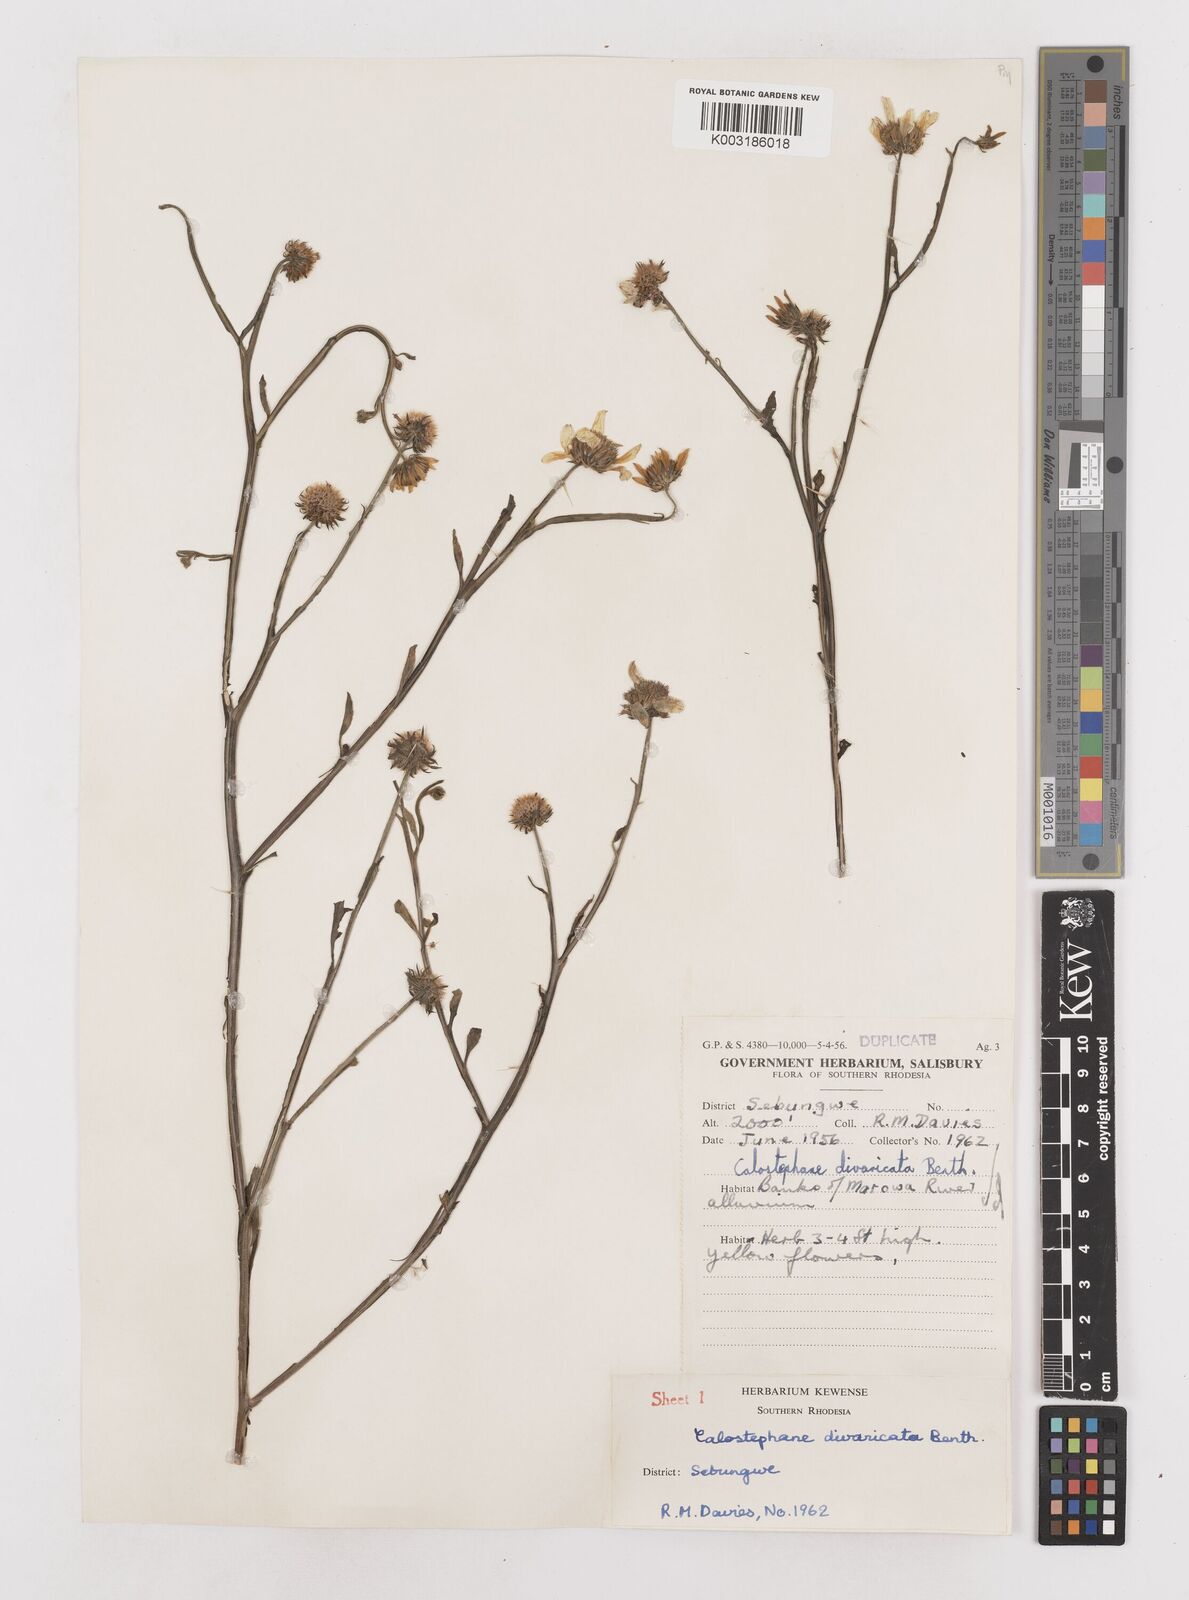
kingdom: Plantae
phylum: Tracheophyta
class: Magnoliopsida
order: Asterales
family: Asteraceae
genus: Calostephane
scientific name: Calostephane divaricata
